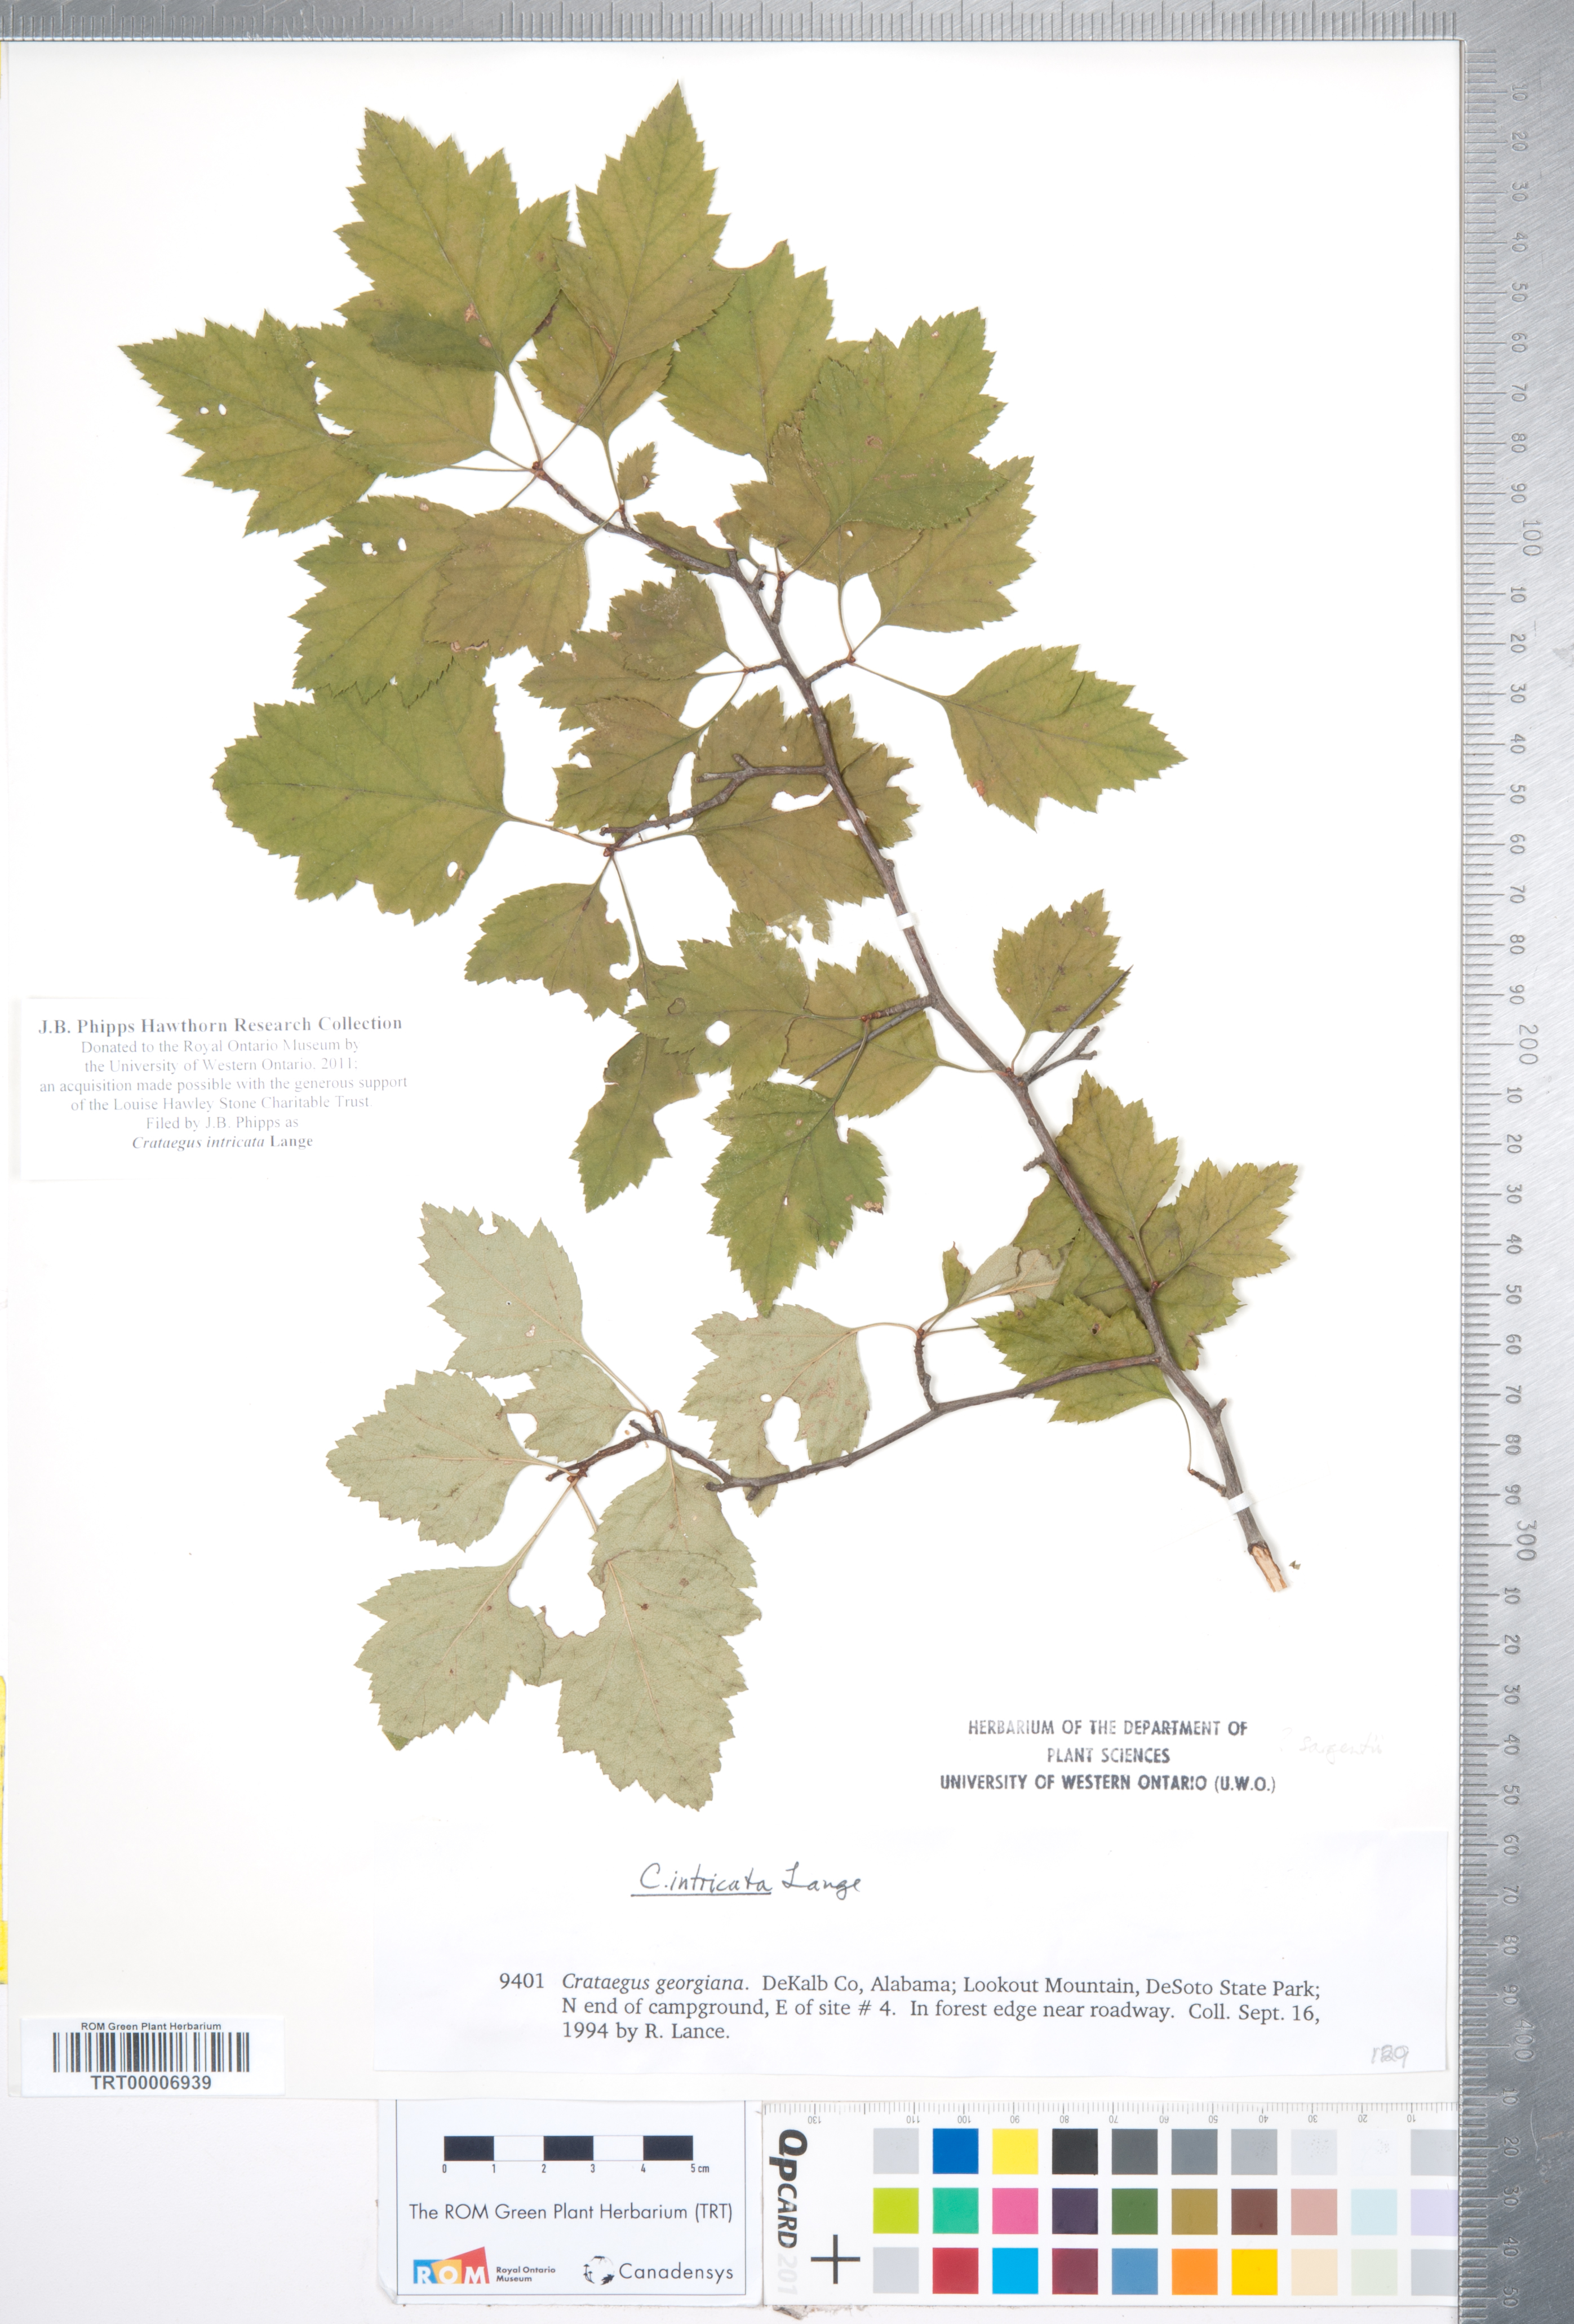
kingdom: Plantae
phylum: Tracheophyta
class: Magnoliopsida
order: Rosales
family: Rosaceae
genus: Crataegus
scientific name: Crataegus intricata
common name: Biltmore hawthorn
